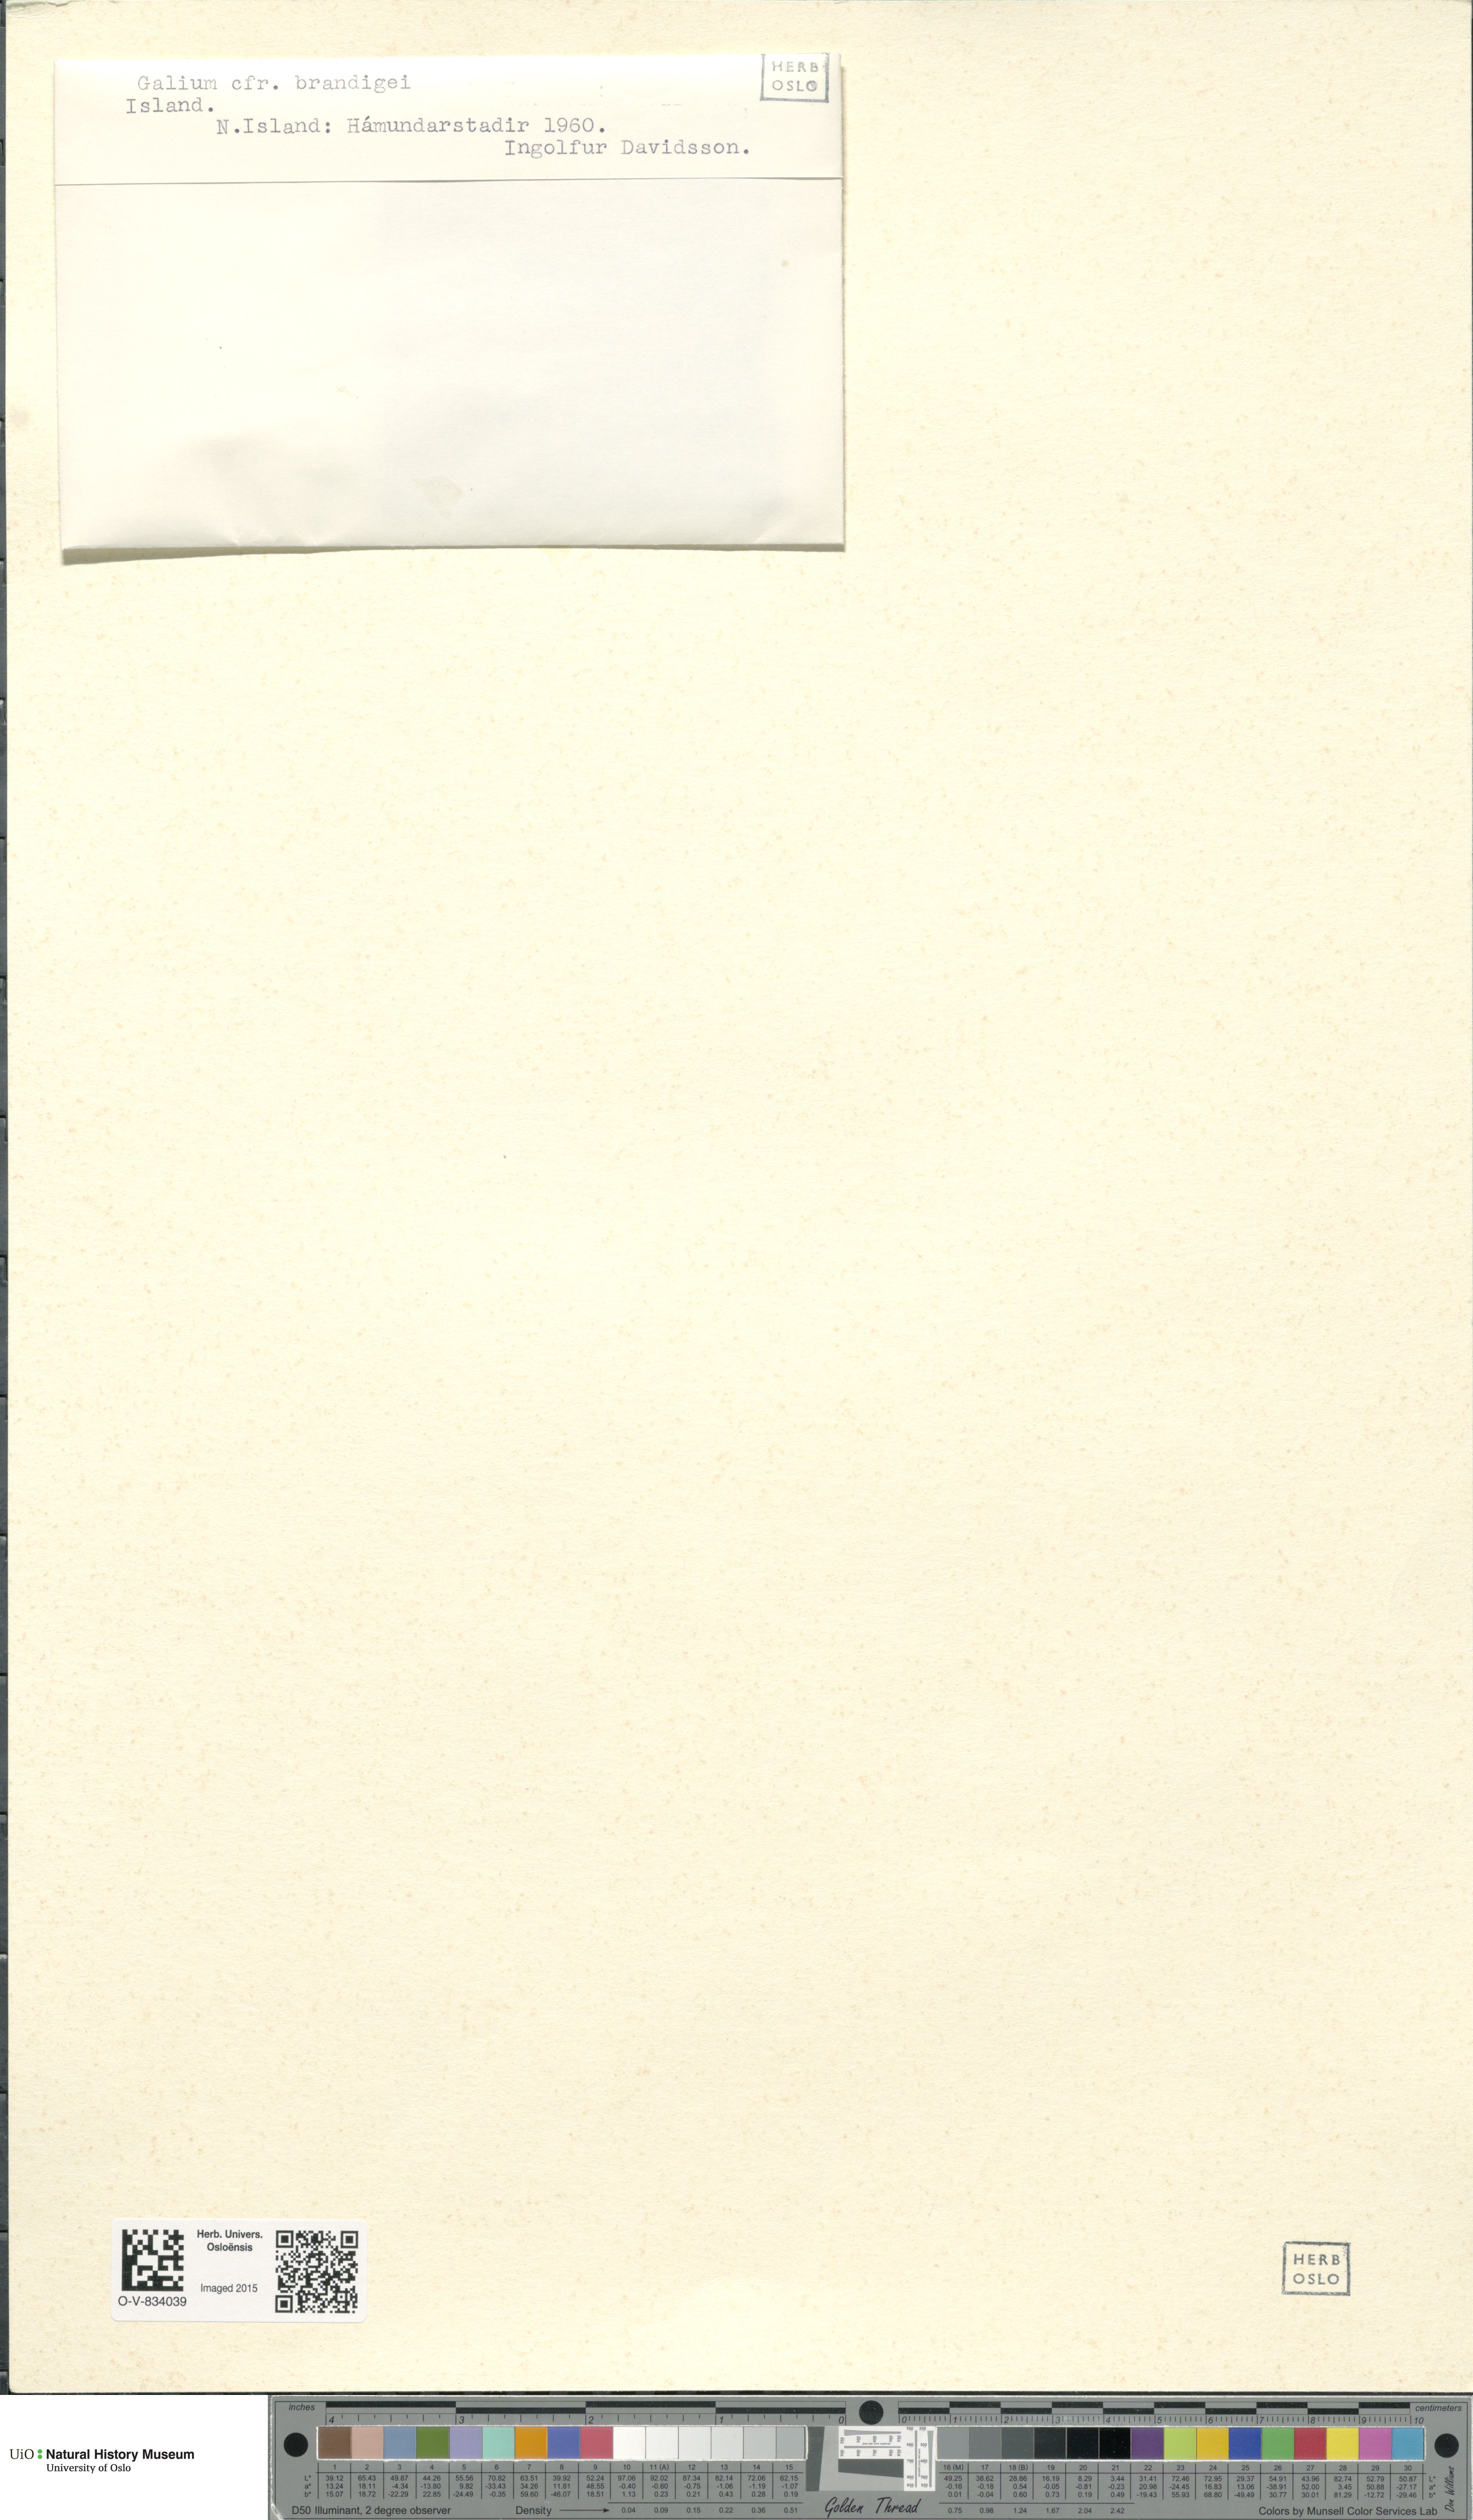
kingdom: Plantae
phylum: Tracheophyta
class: Magnoliopsida
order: Gentianales
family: Rubiaceae
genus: Galium
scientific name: Galium trifidum
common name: Small bedstraw
